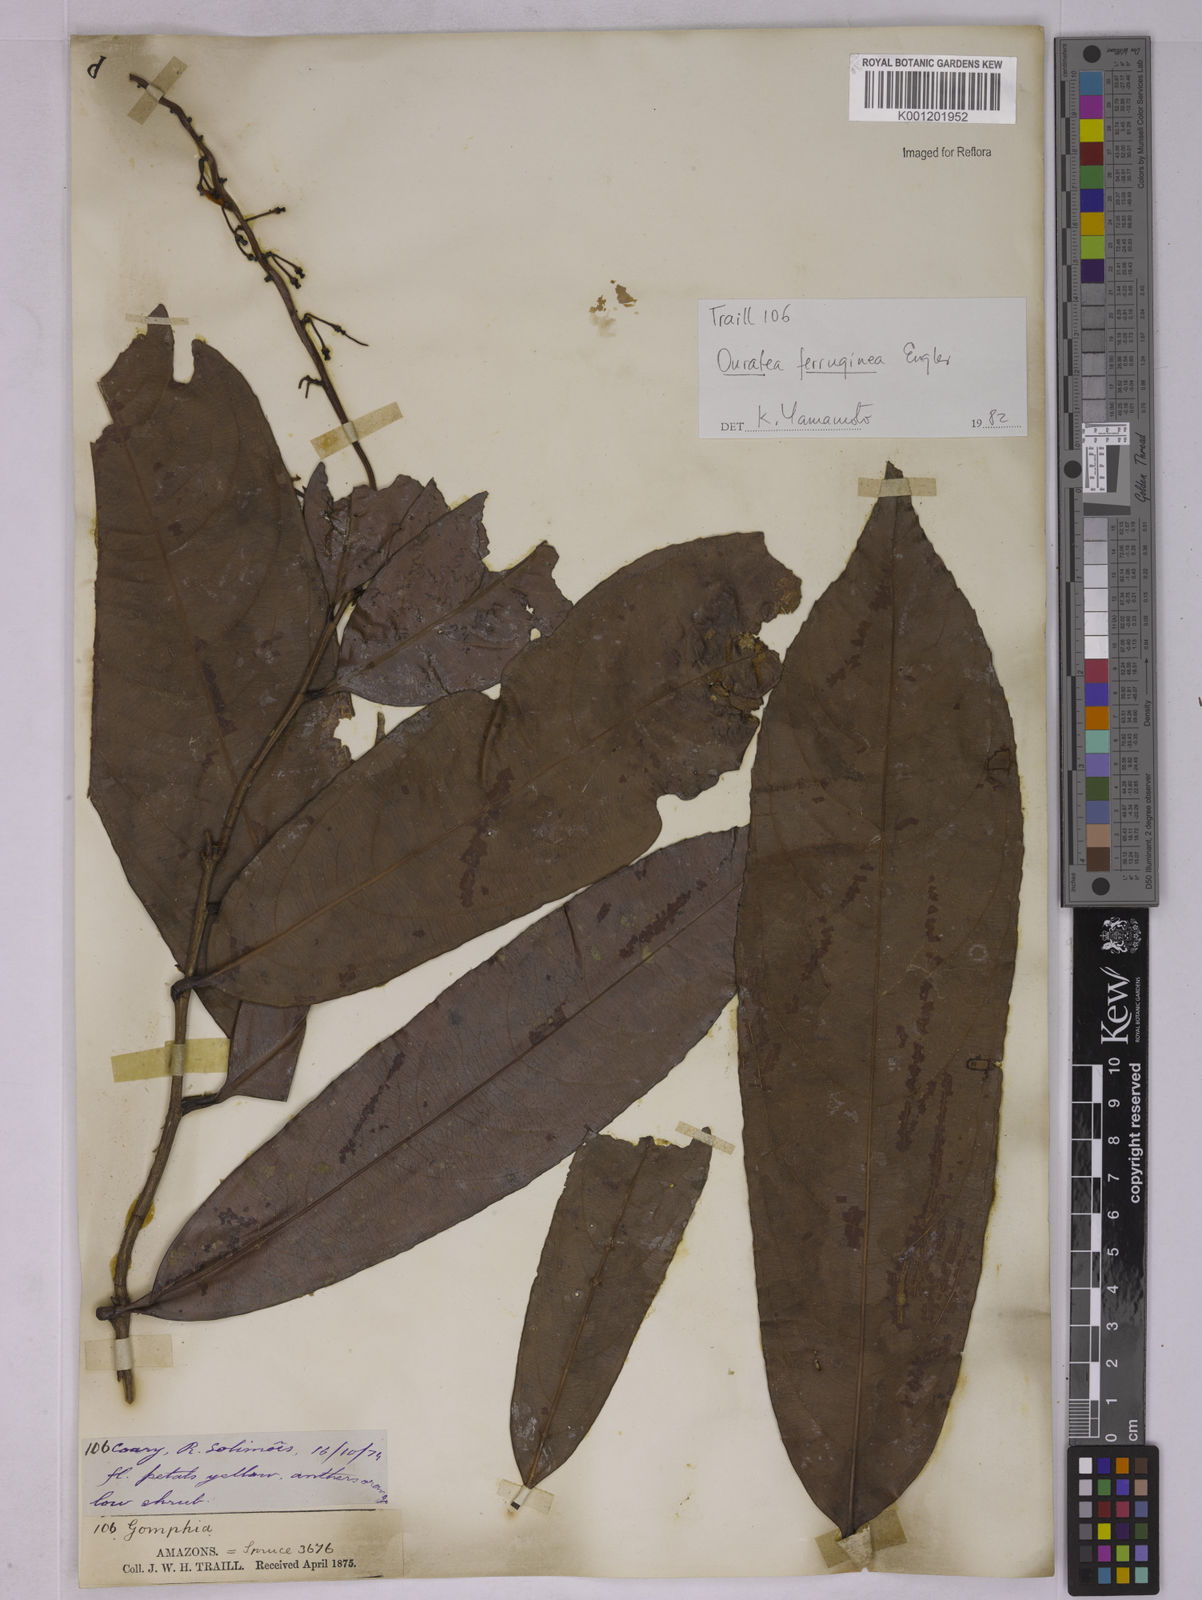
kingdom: Plantae
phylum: Tracheophyta
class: Magnoliopsida
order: Malpighiales
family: Ochnaceae
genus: Ouratea
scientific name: Ouratea ferruginea
